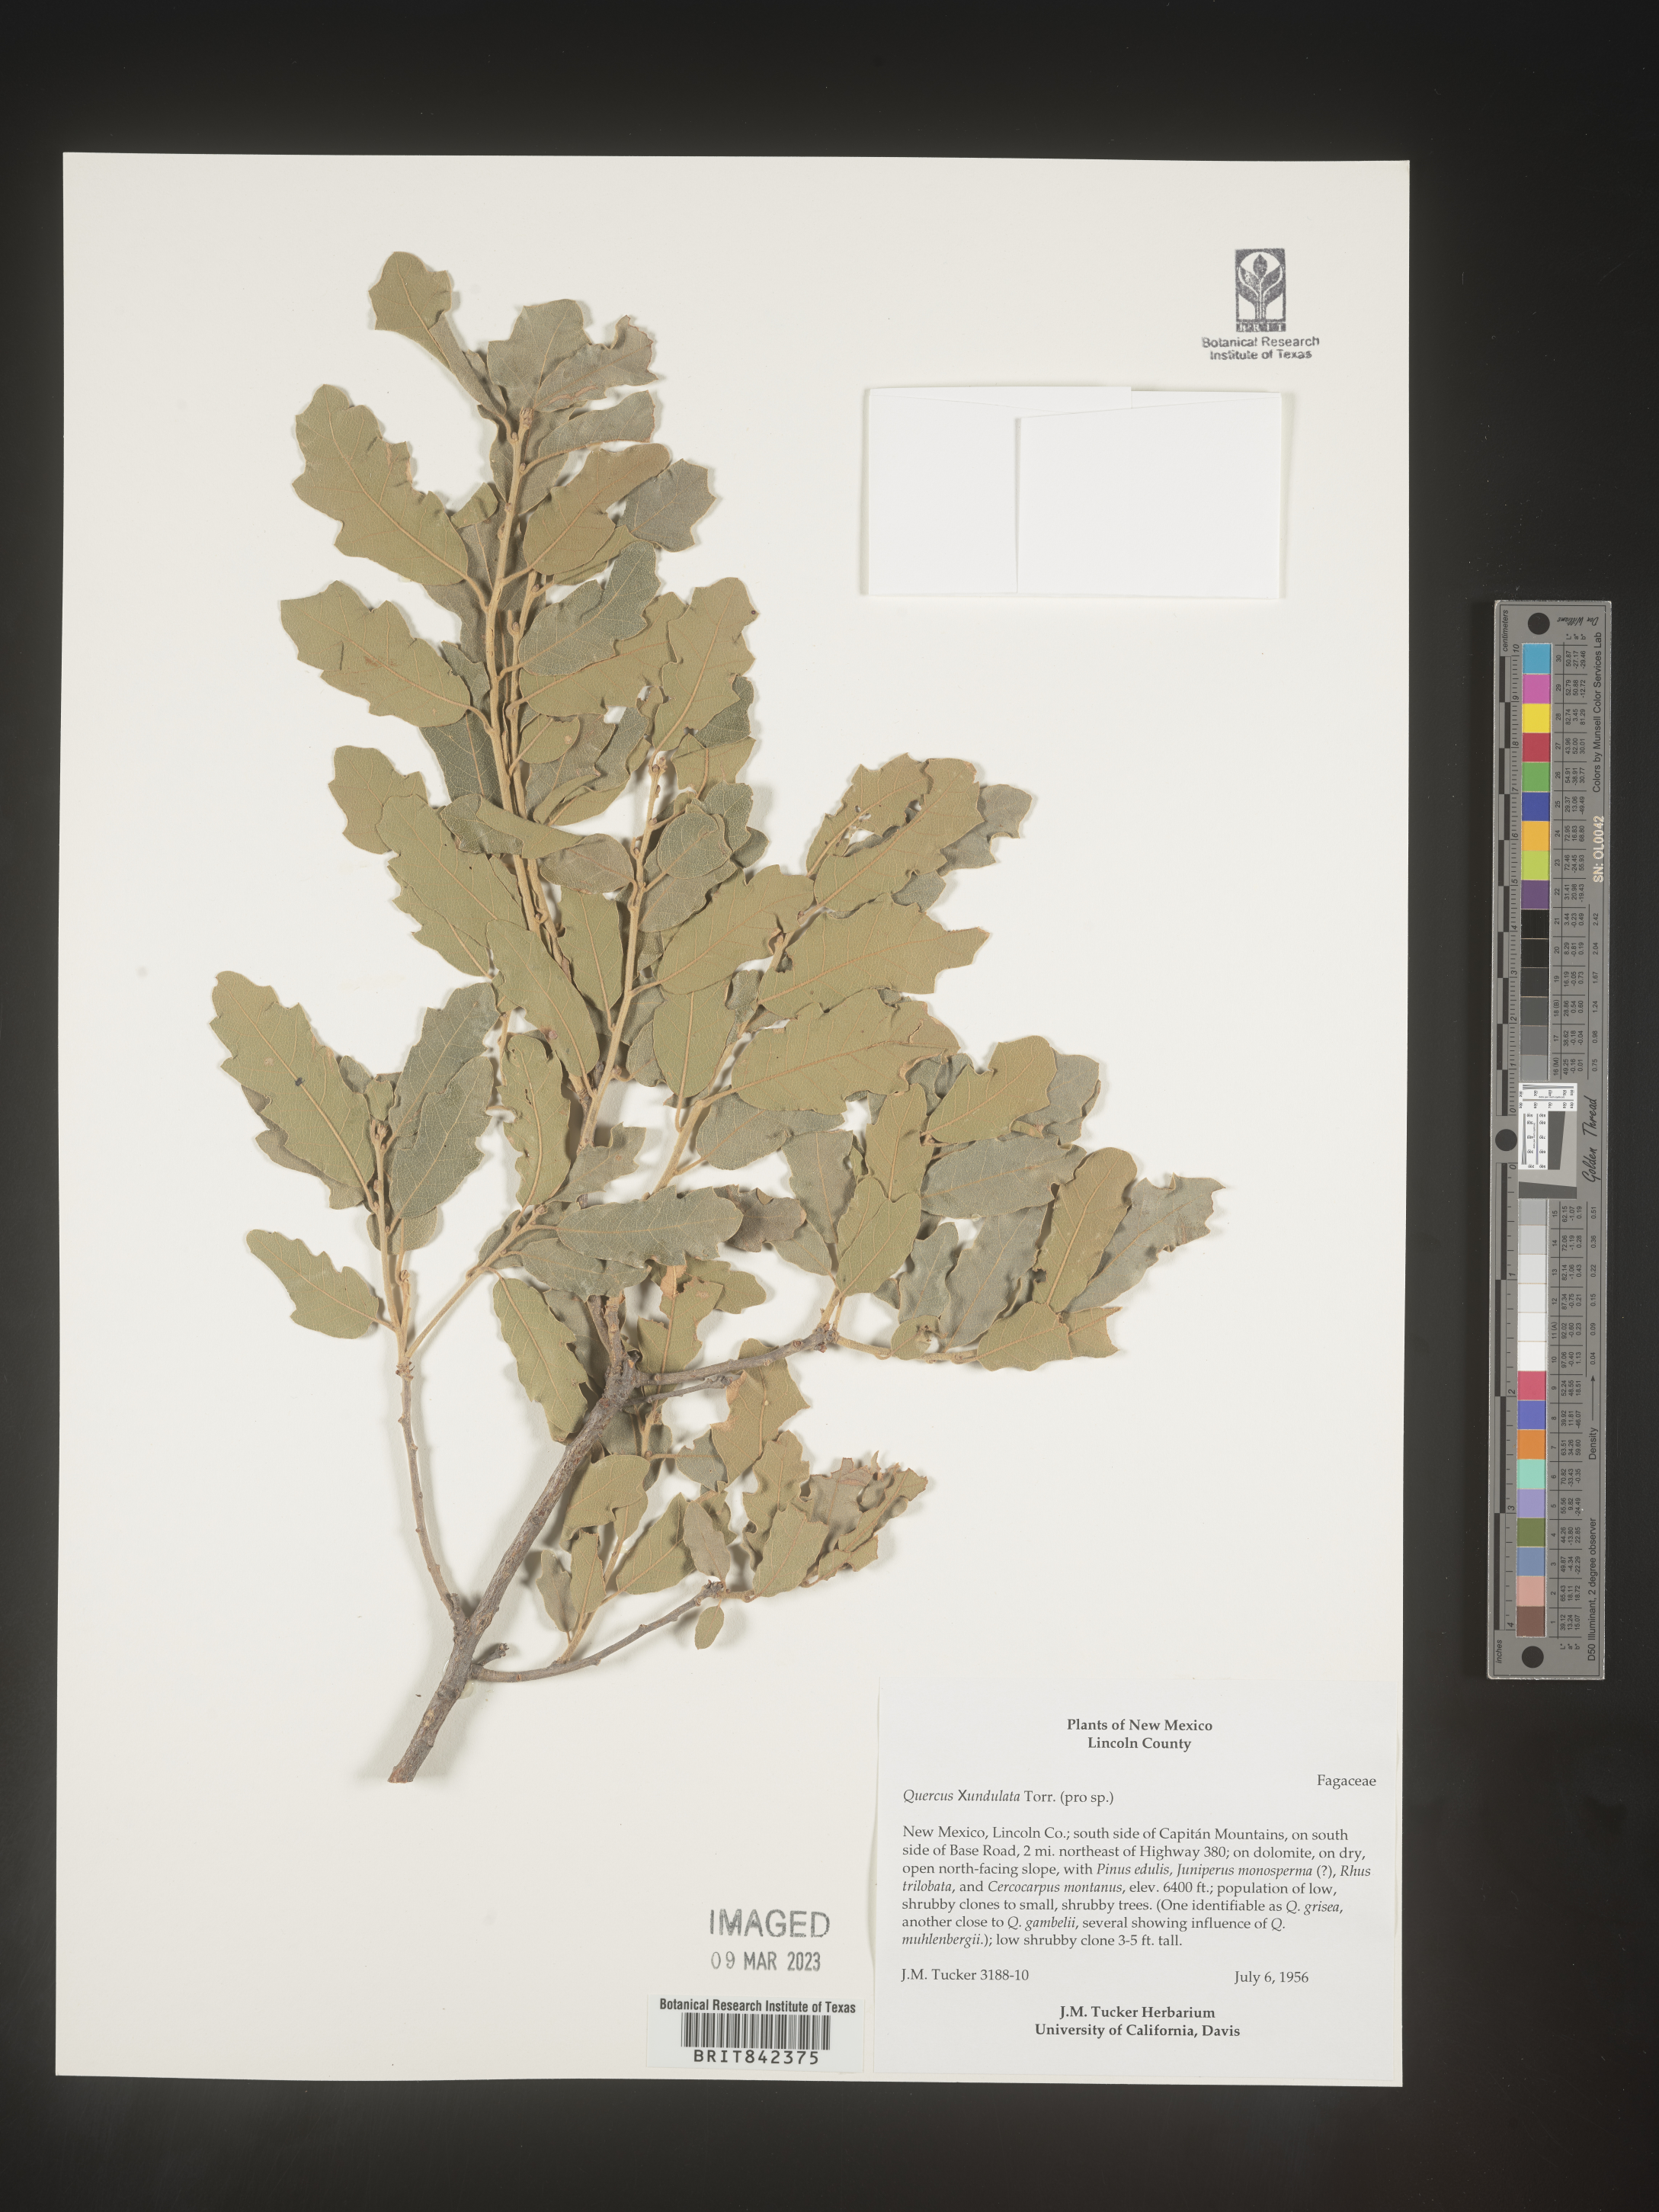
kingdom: Plantae
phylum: Tracheophyta
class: Magnoliopsida
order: Fagales
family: Fagaceae
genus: Quercus
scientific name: Quercus undulata
